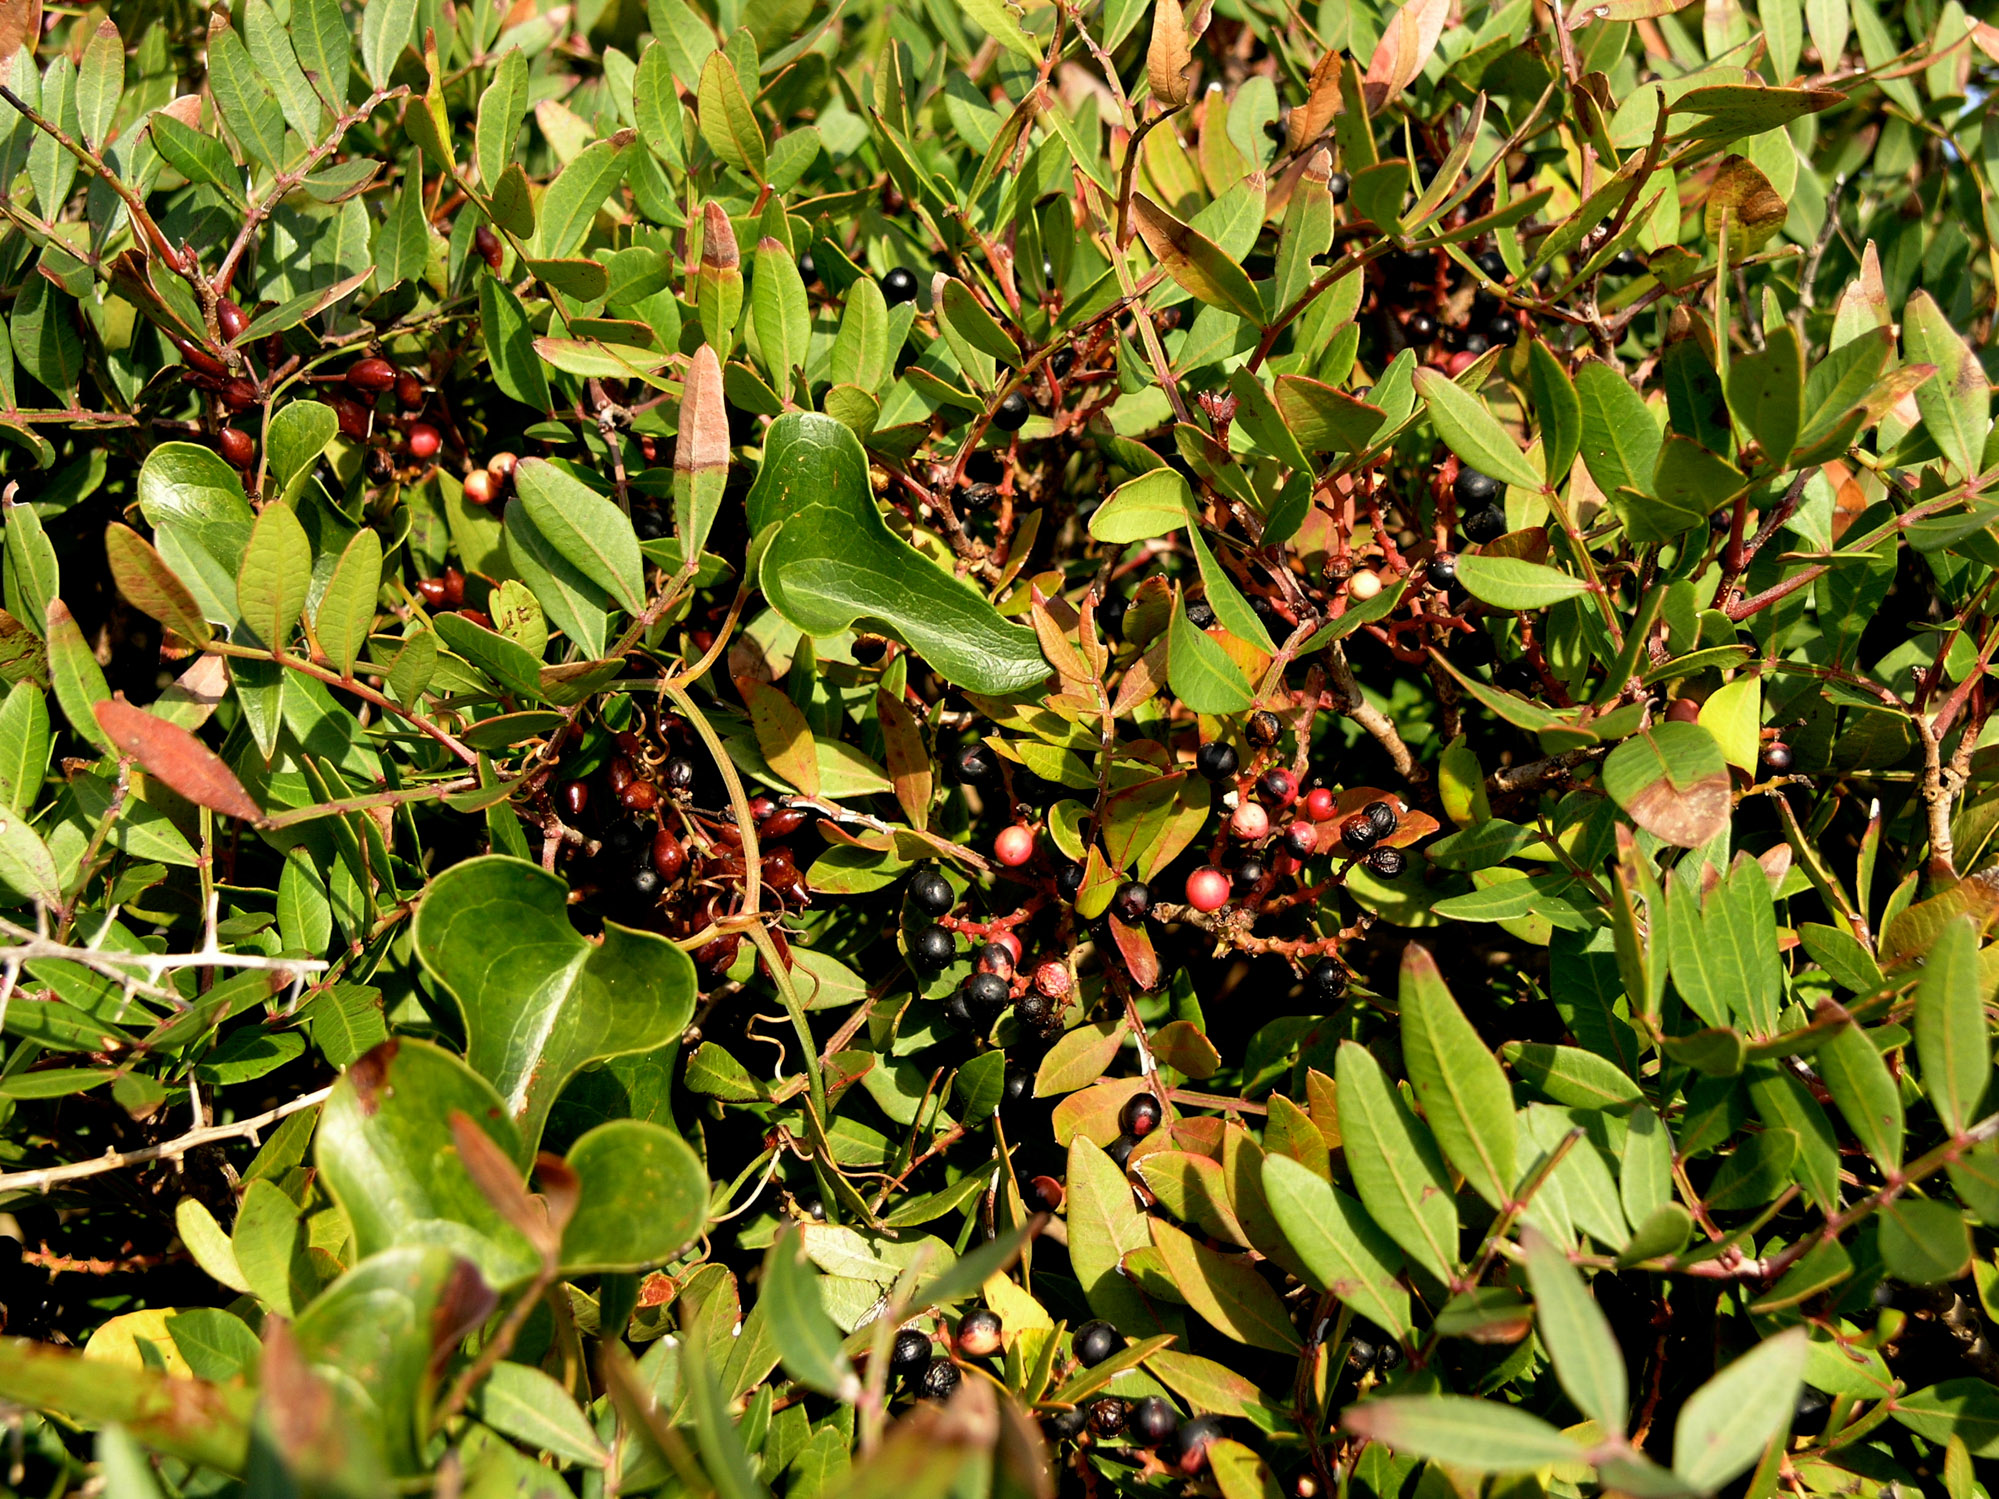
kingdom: Plantae
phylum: Tracheophyta
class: Magnoliopsida
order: Sapindales
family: Anacardiaceae
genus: Pistacia
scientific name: Pistacia lentiscus
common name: Lentisk
